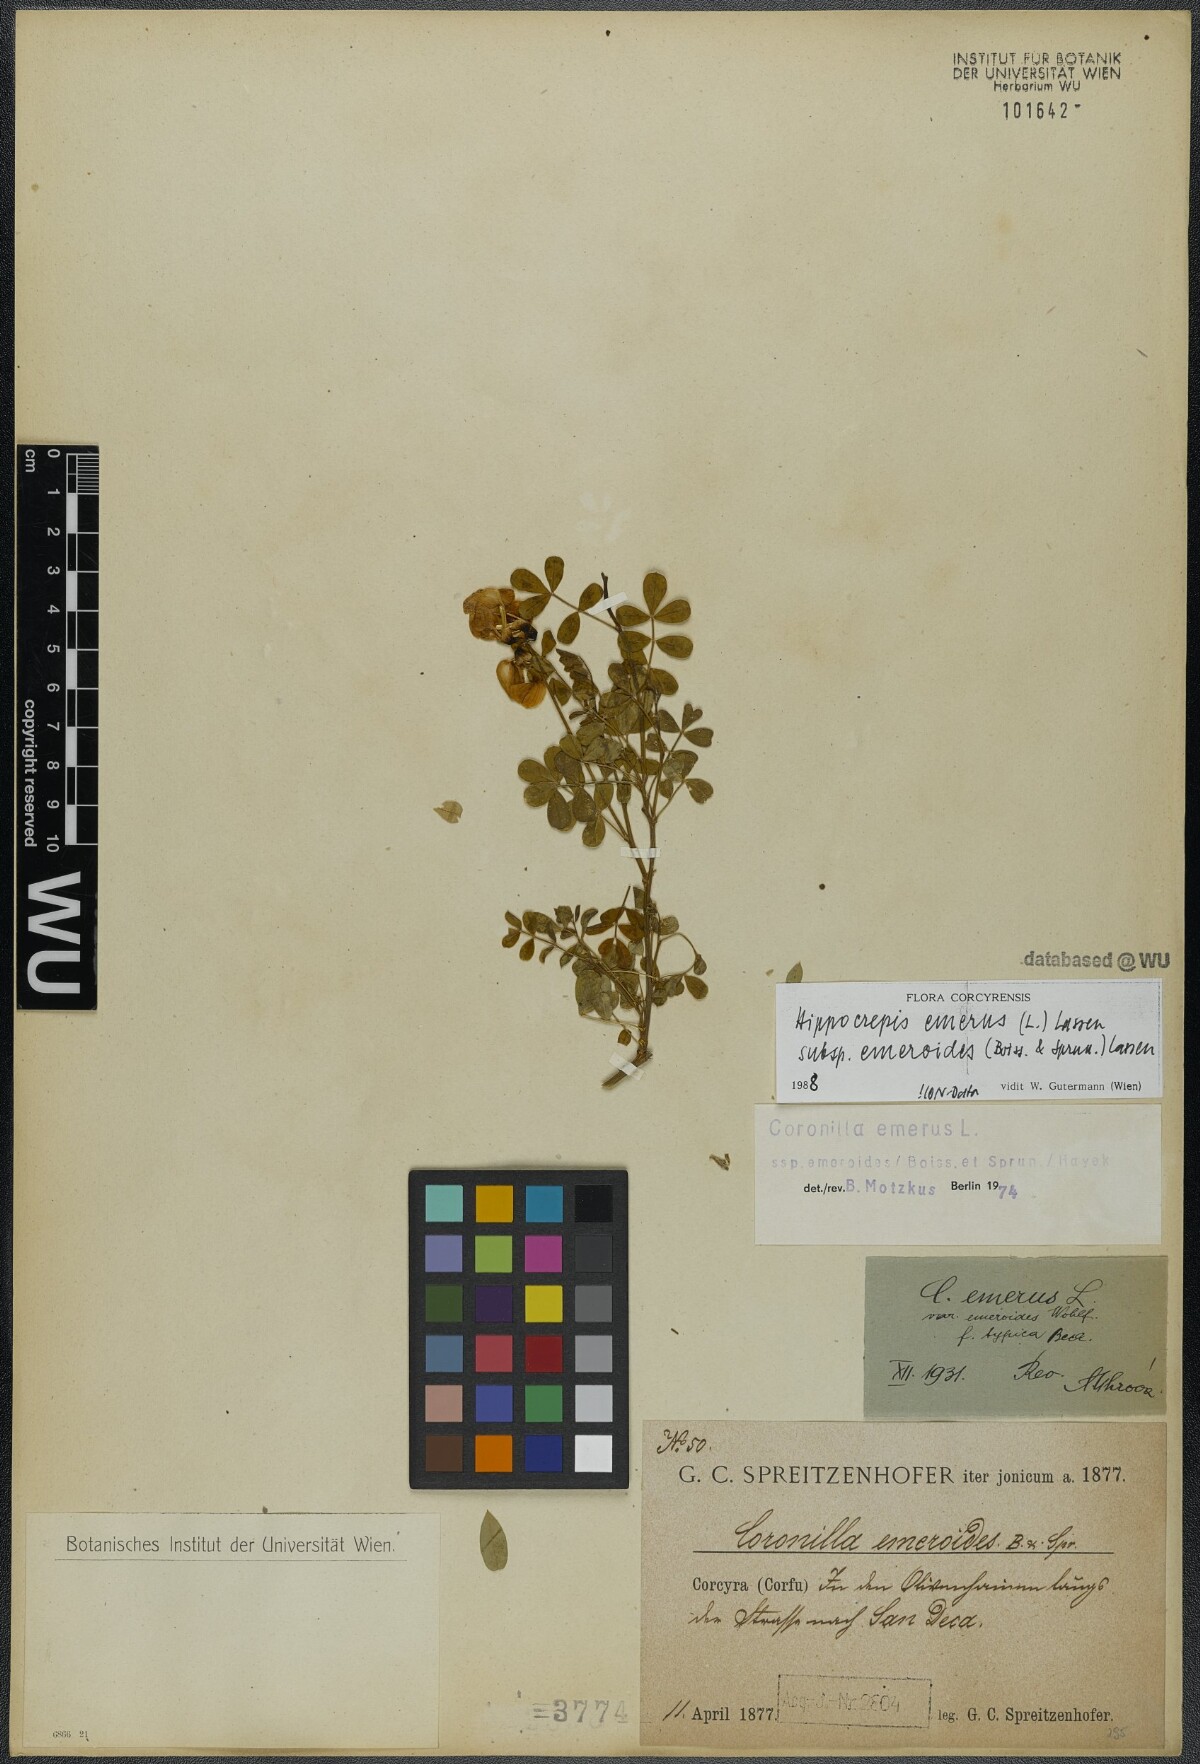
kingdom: Plantae
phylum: Tracheophyta
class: Magnoliopsida
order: Fabales
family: Fabaceae
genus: Hippocrepis
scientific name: Hippocrepis emerus
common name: Scorpion senna
